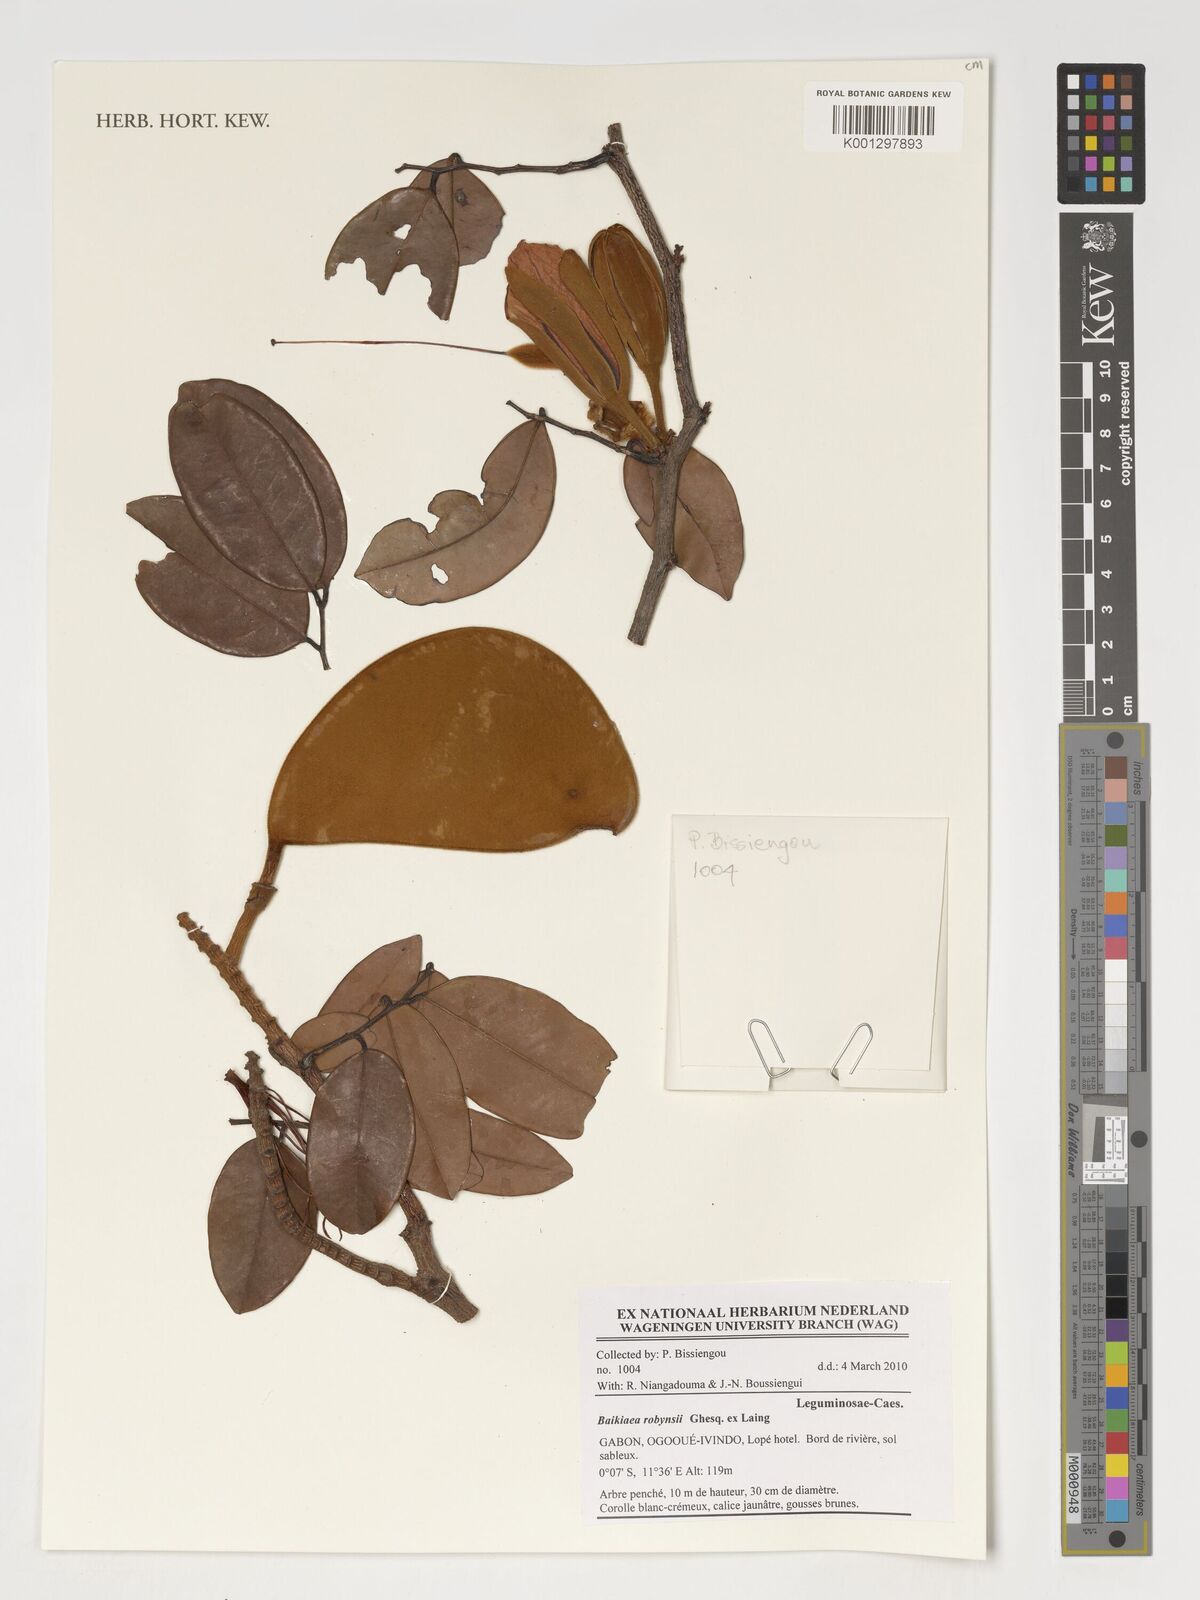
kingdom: Plantae
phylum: Tracheophyta
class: Magnoliopsida
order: Fabales
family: Fabaceae
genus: Baikiaea
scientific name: Baikiaea robynsii
